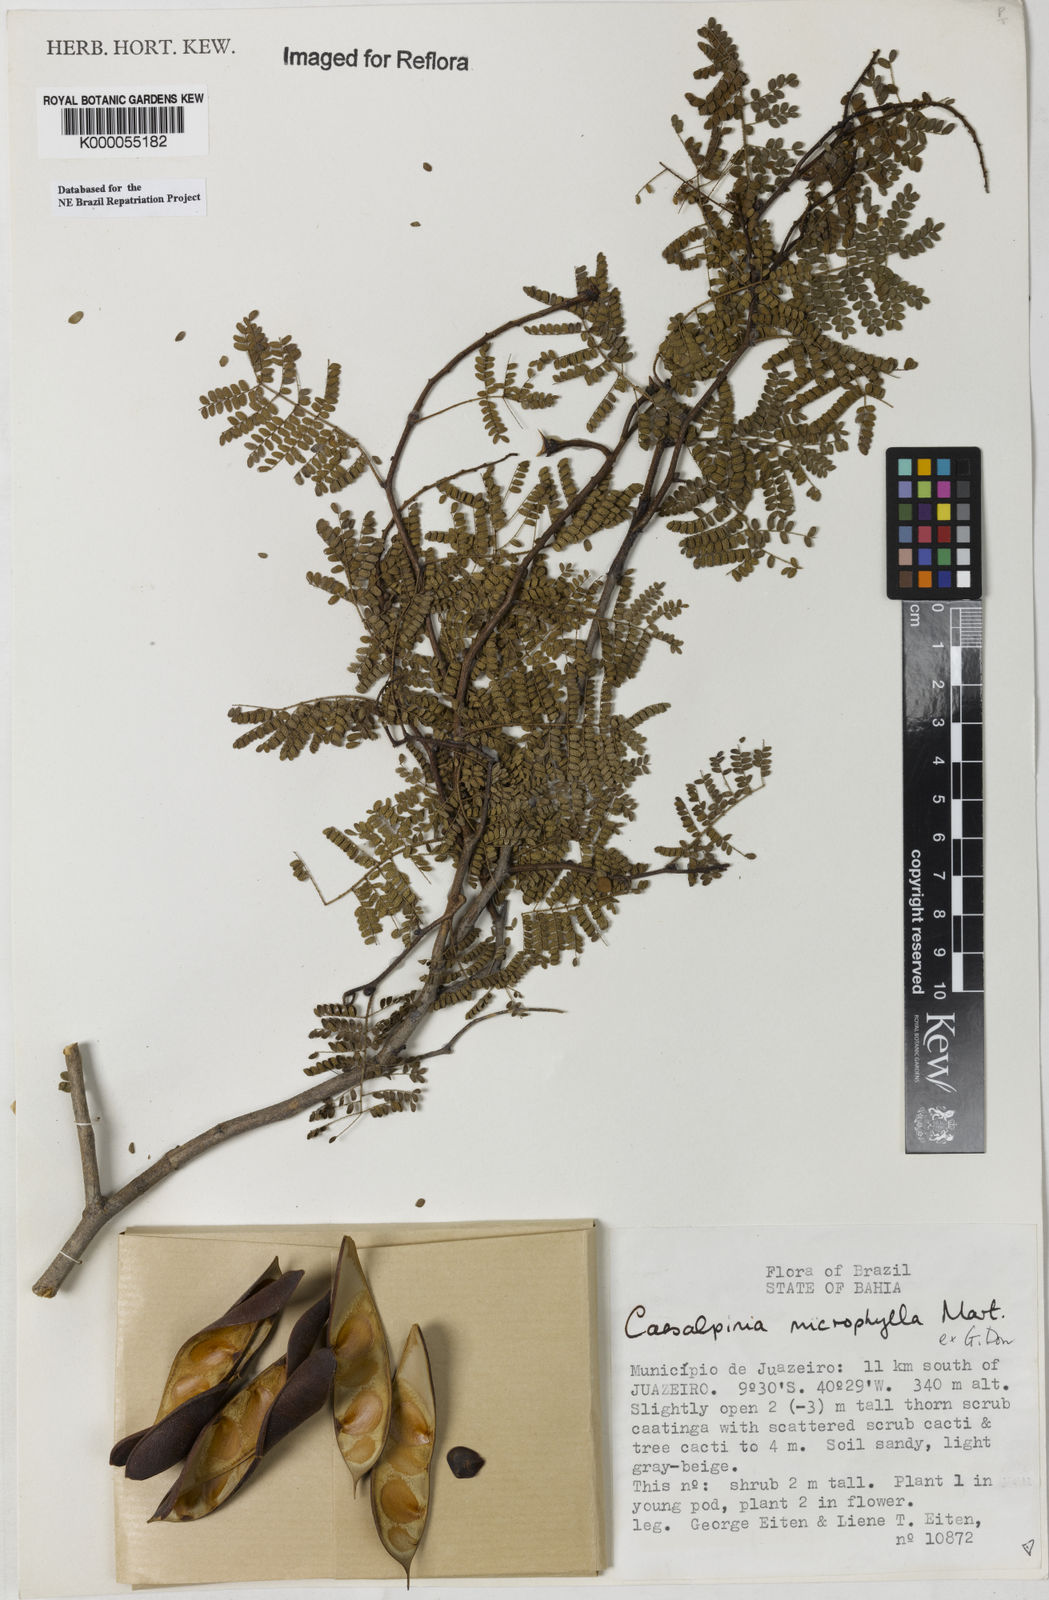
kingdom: Plantae
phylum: Tracheophyta
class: Magnoliopsida
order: Fabales
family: Fabaceae
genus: Cenostigma
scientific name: Cenostigma microphyllum
